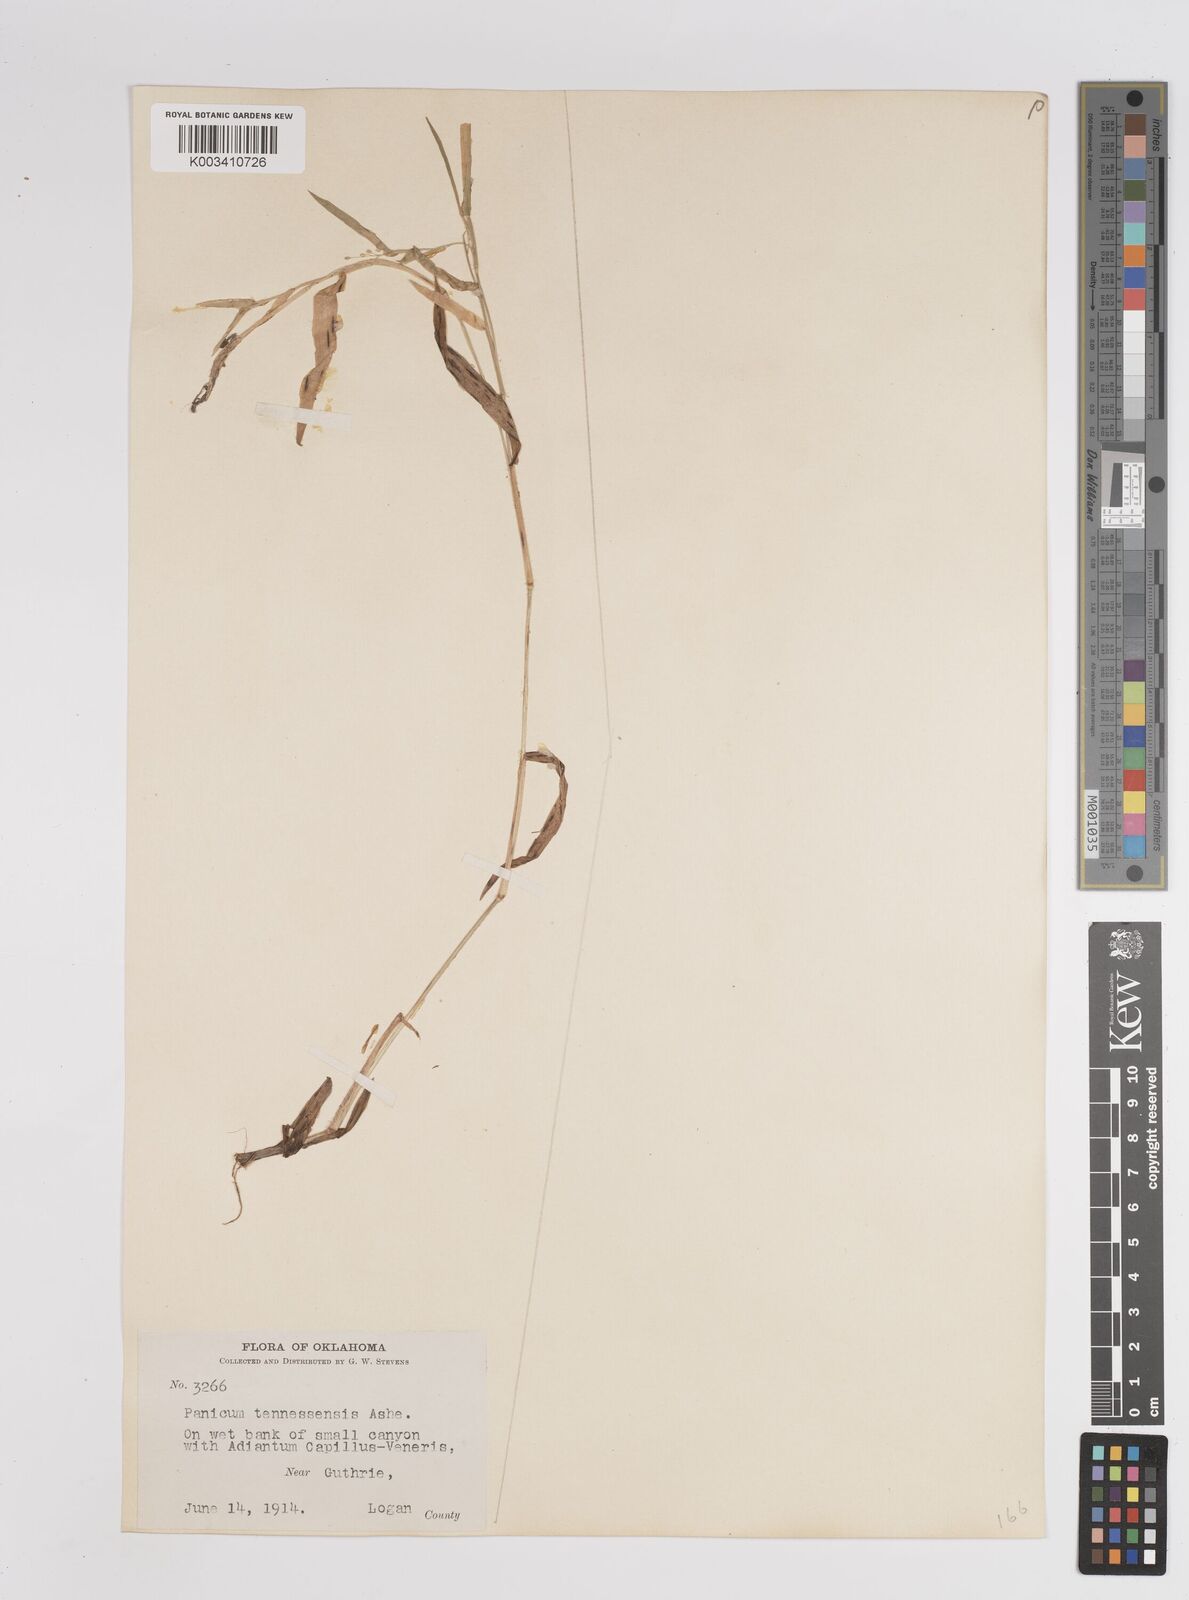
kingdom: Plantae
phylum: Tracheophyta
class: Liliopsida
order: Poales
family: Poaceae
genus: Dichanthelium
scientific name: Dichanthelium acuminatum
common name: Hairy panic grass
